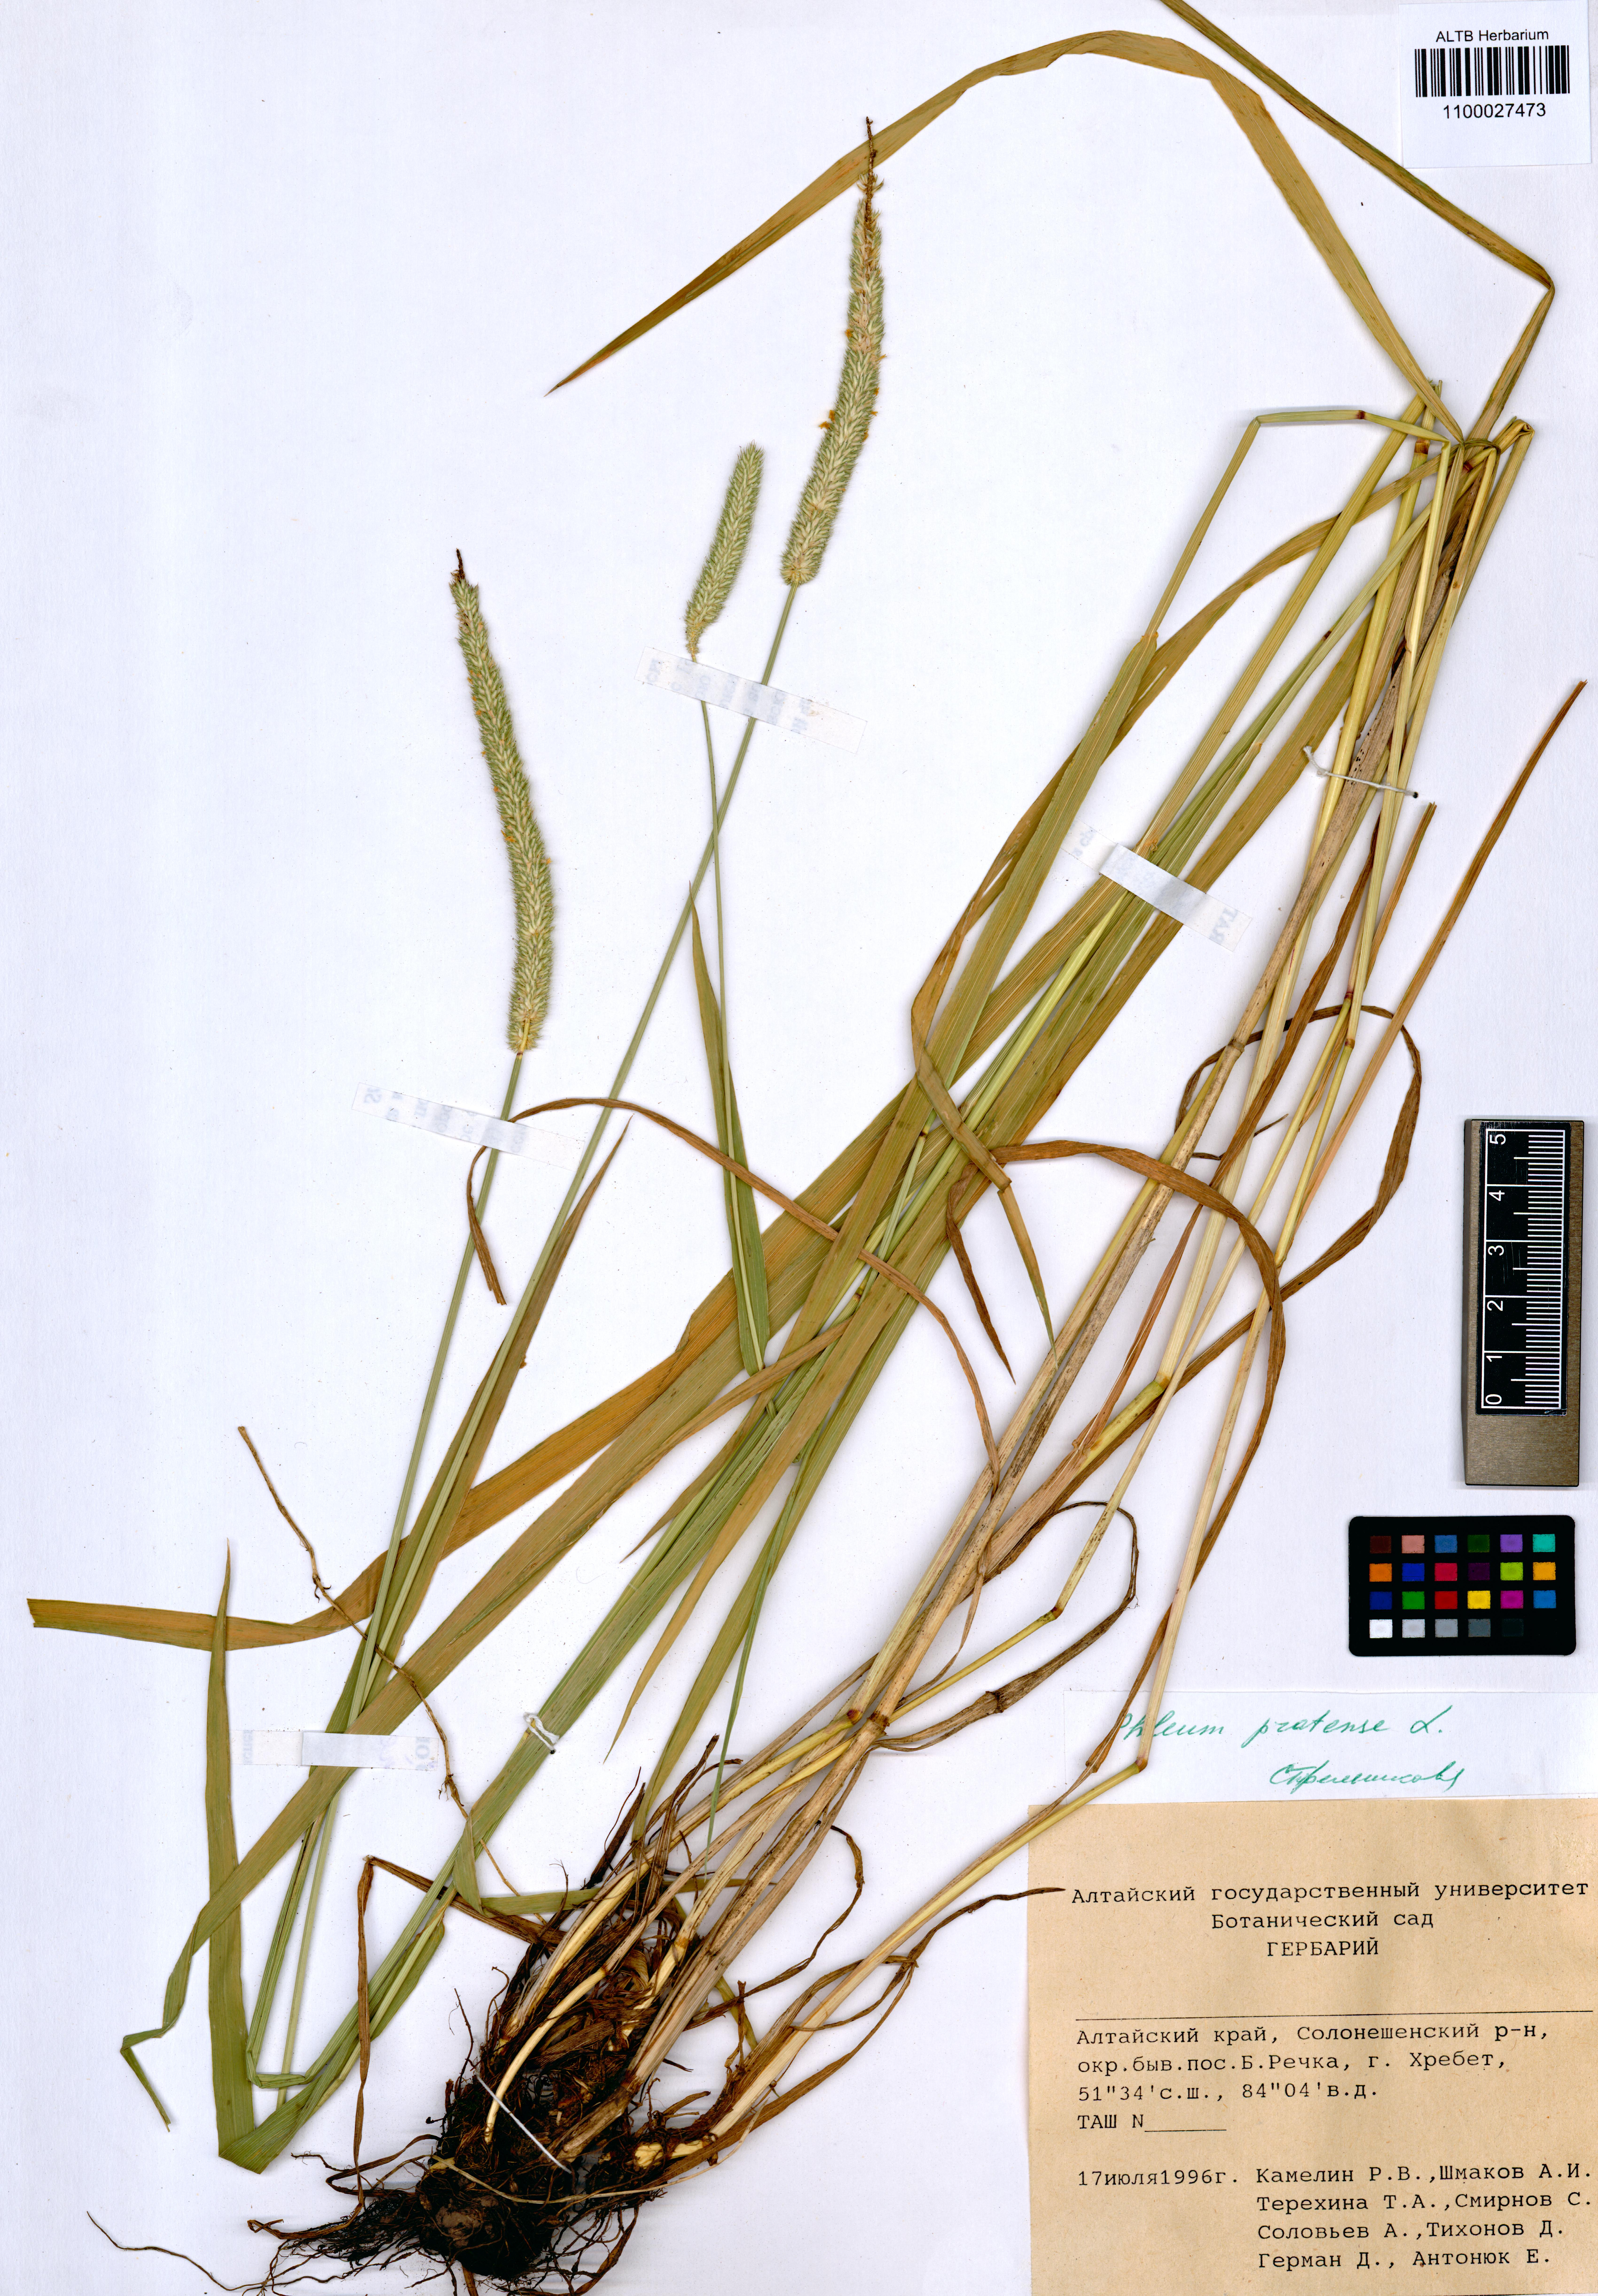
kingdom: Plantae
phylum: Tracheophyta
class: Liliopsida
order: Poales
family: Poaceae
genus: Phleum
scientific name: Phleum pratense
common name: Timothy grass
